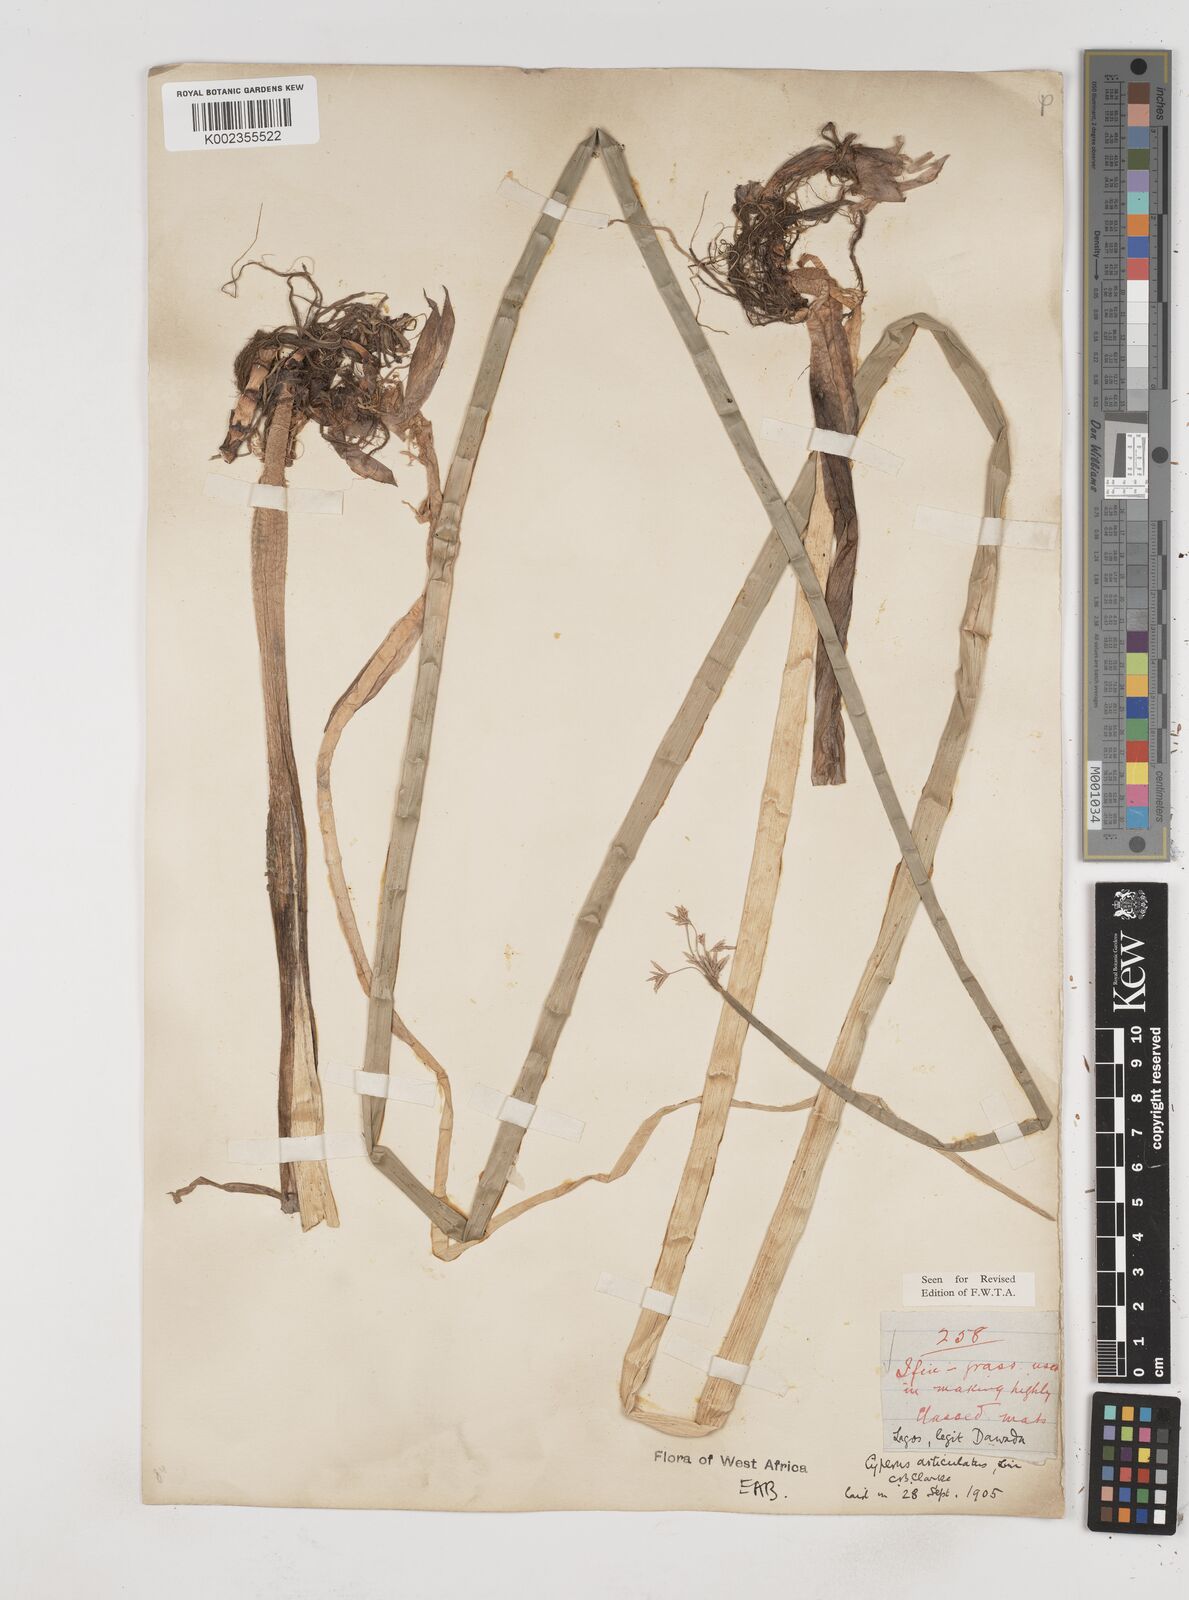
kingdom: Plantae
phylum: Tracheophyta
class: Liliopsida
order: Poales
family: Cyperaceae
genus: Cyperus
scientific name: Cyperus articulatus
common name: Jointed flatsedge
